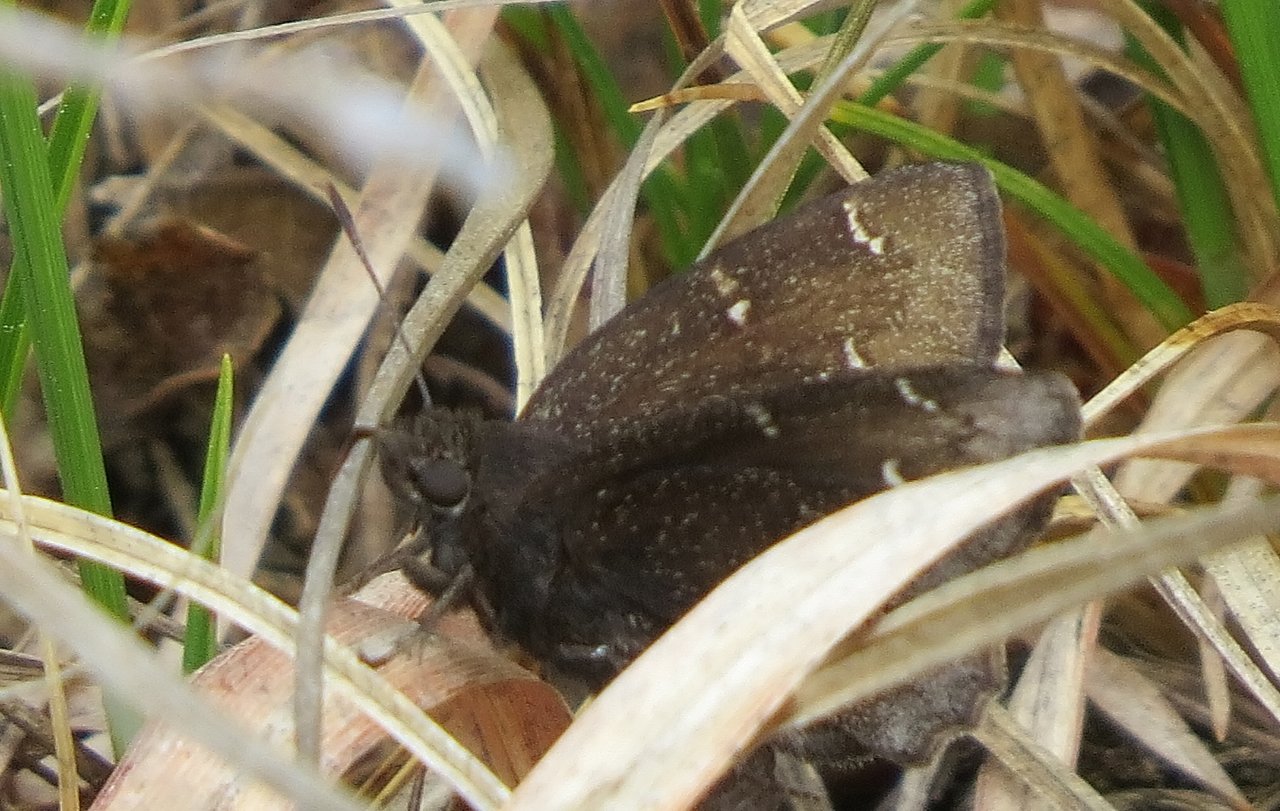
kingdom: Animalia
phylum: Arthropoda
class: Insecta
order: Lepidoptera
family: Hesperiidae
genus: Autochton
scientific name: Autochton
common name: Northern Cloudywing
